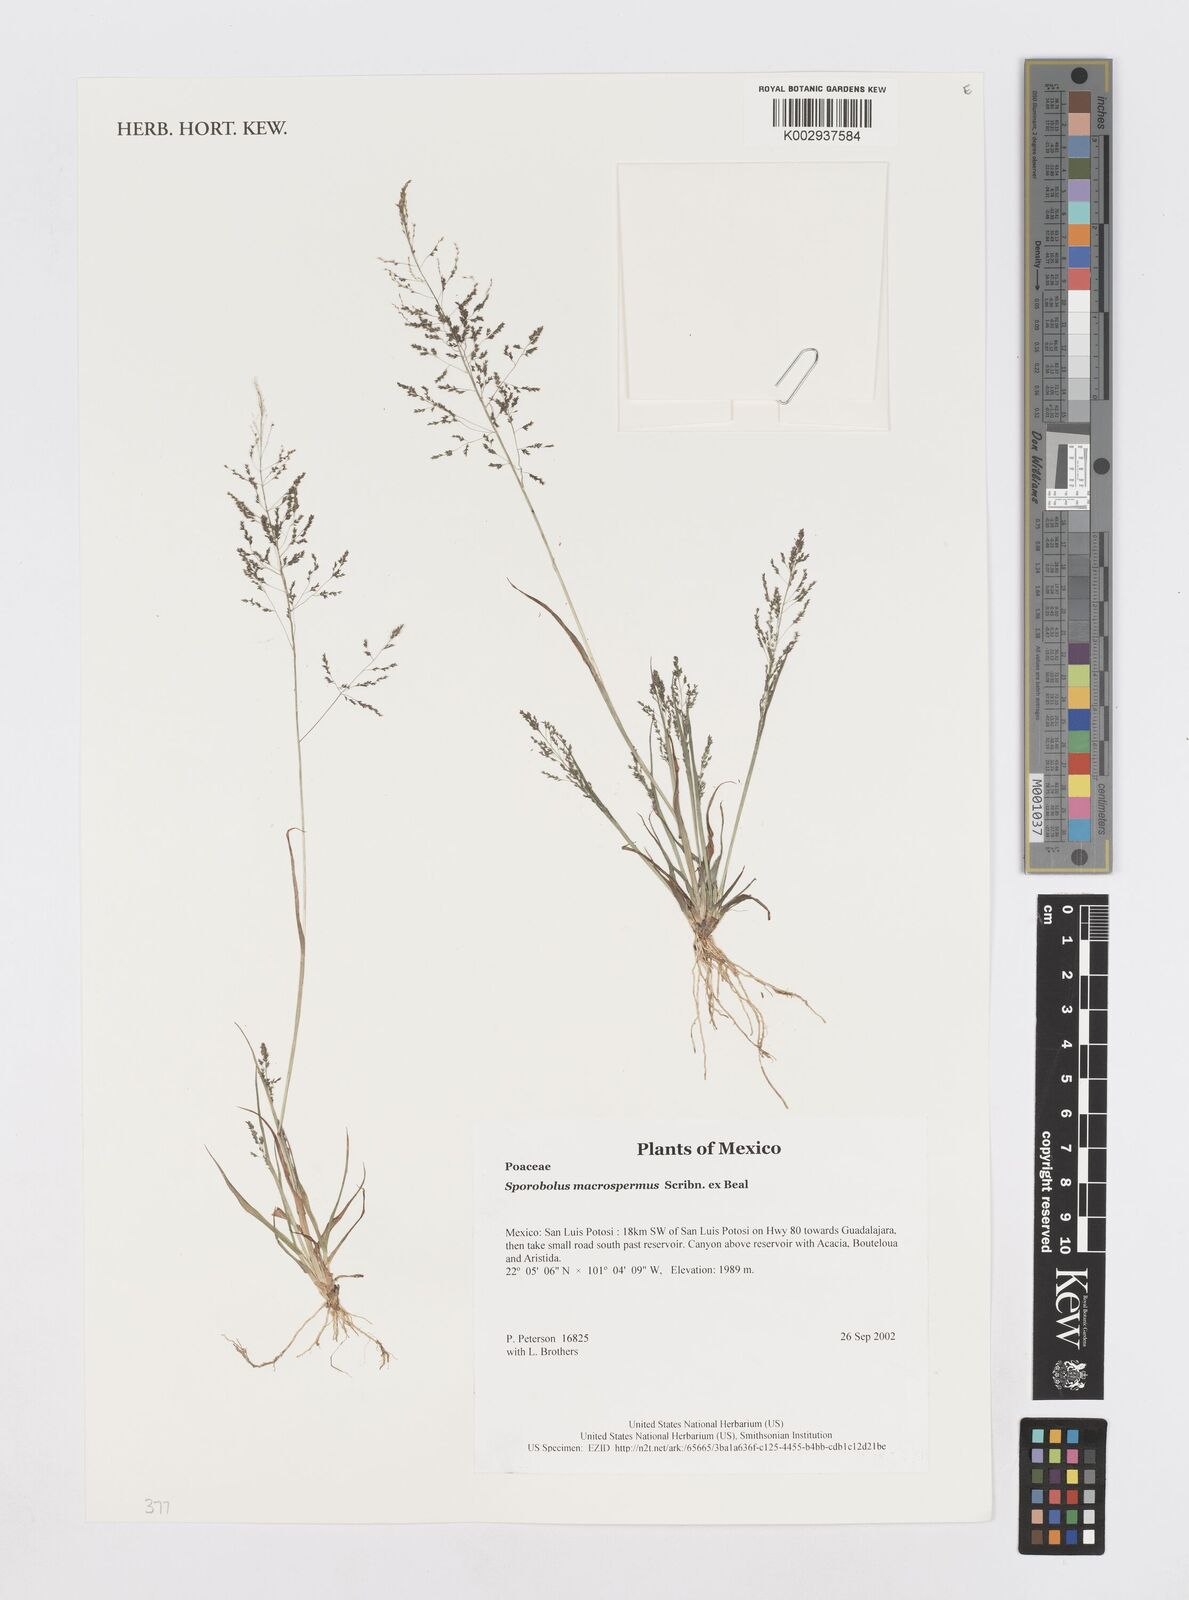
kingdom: Plantae
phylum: Tracheophyta
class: Liliopsida
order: Poales
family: Poaceae
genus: Sporobolus
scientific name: Sporobolus macrospermus
